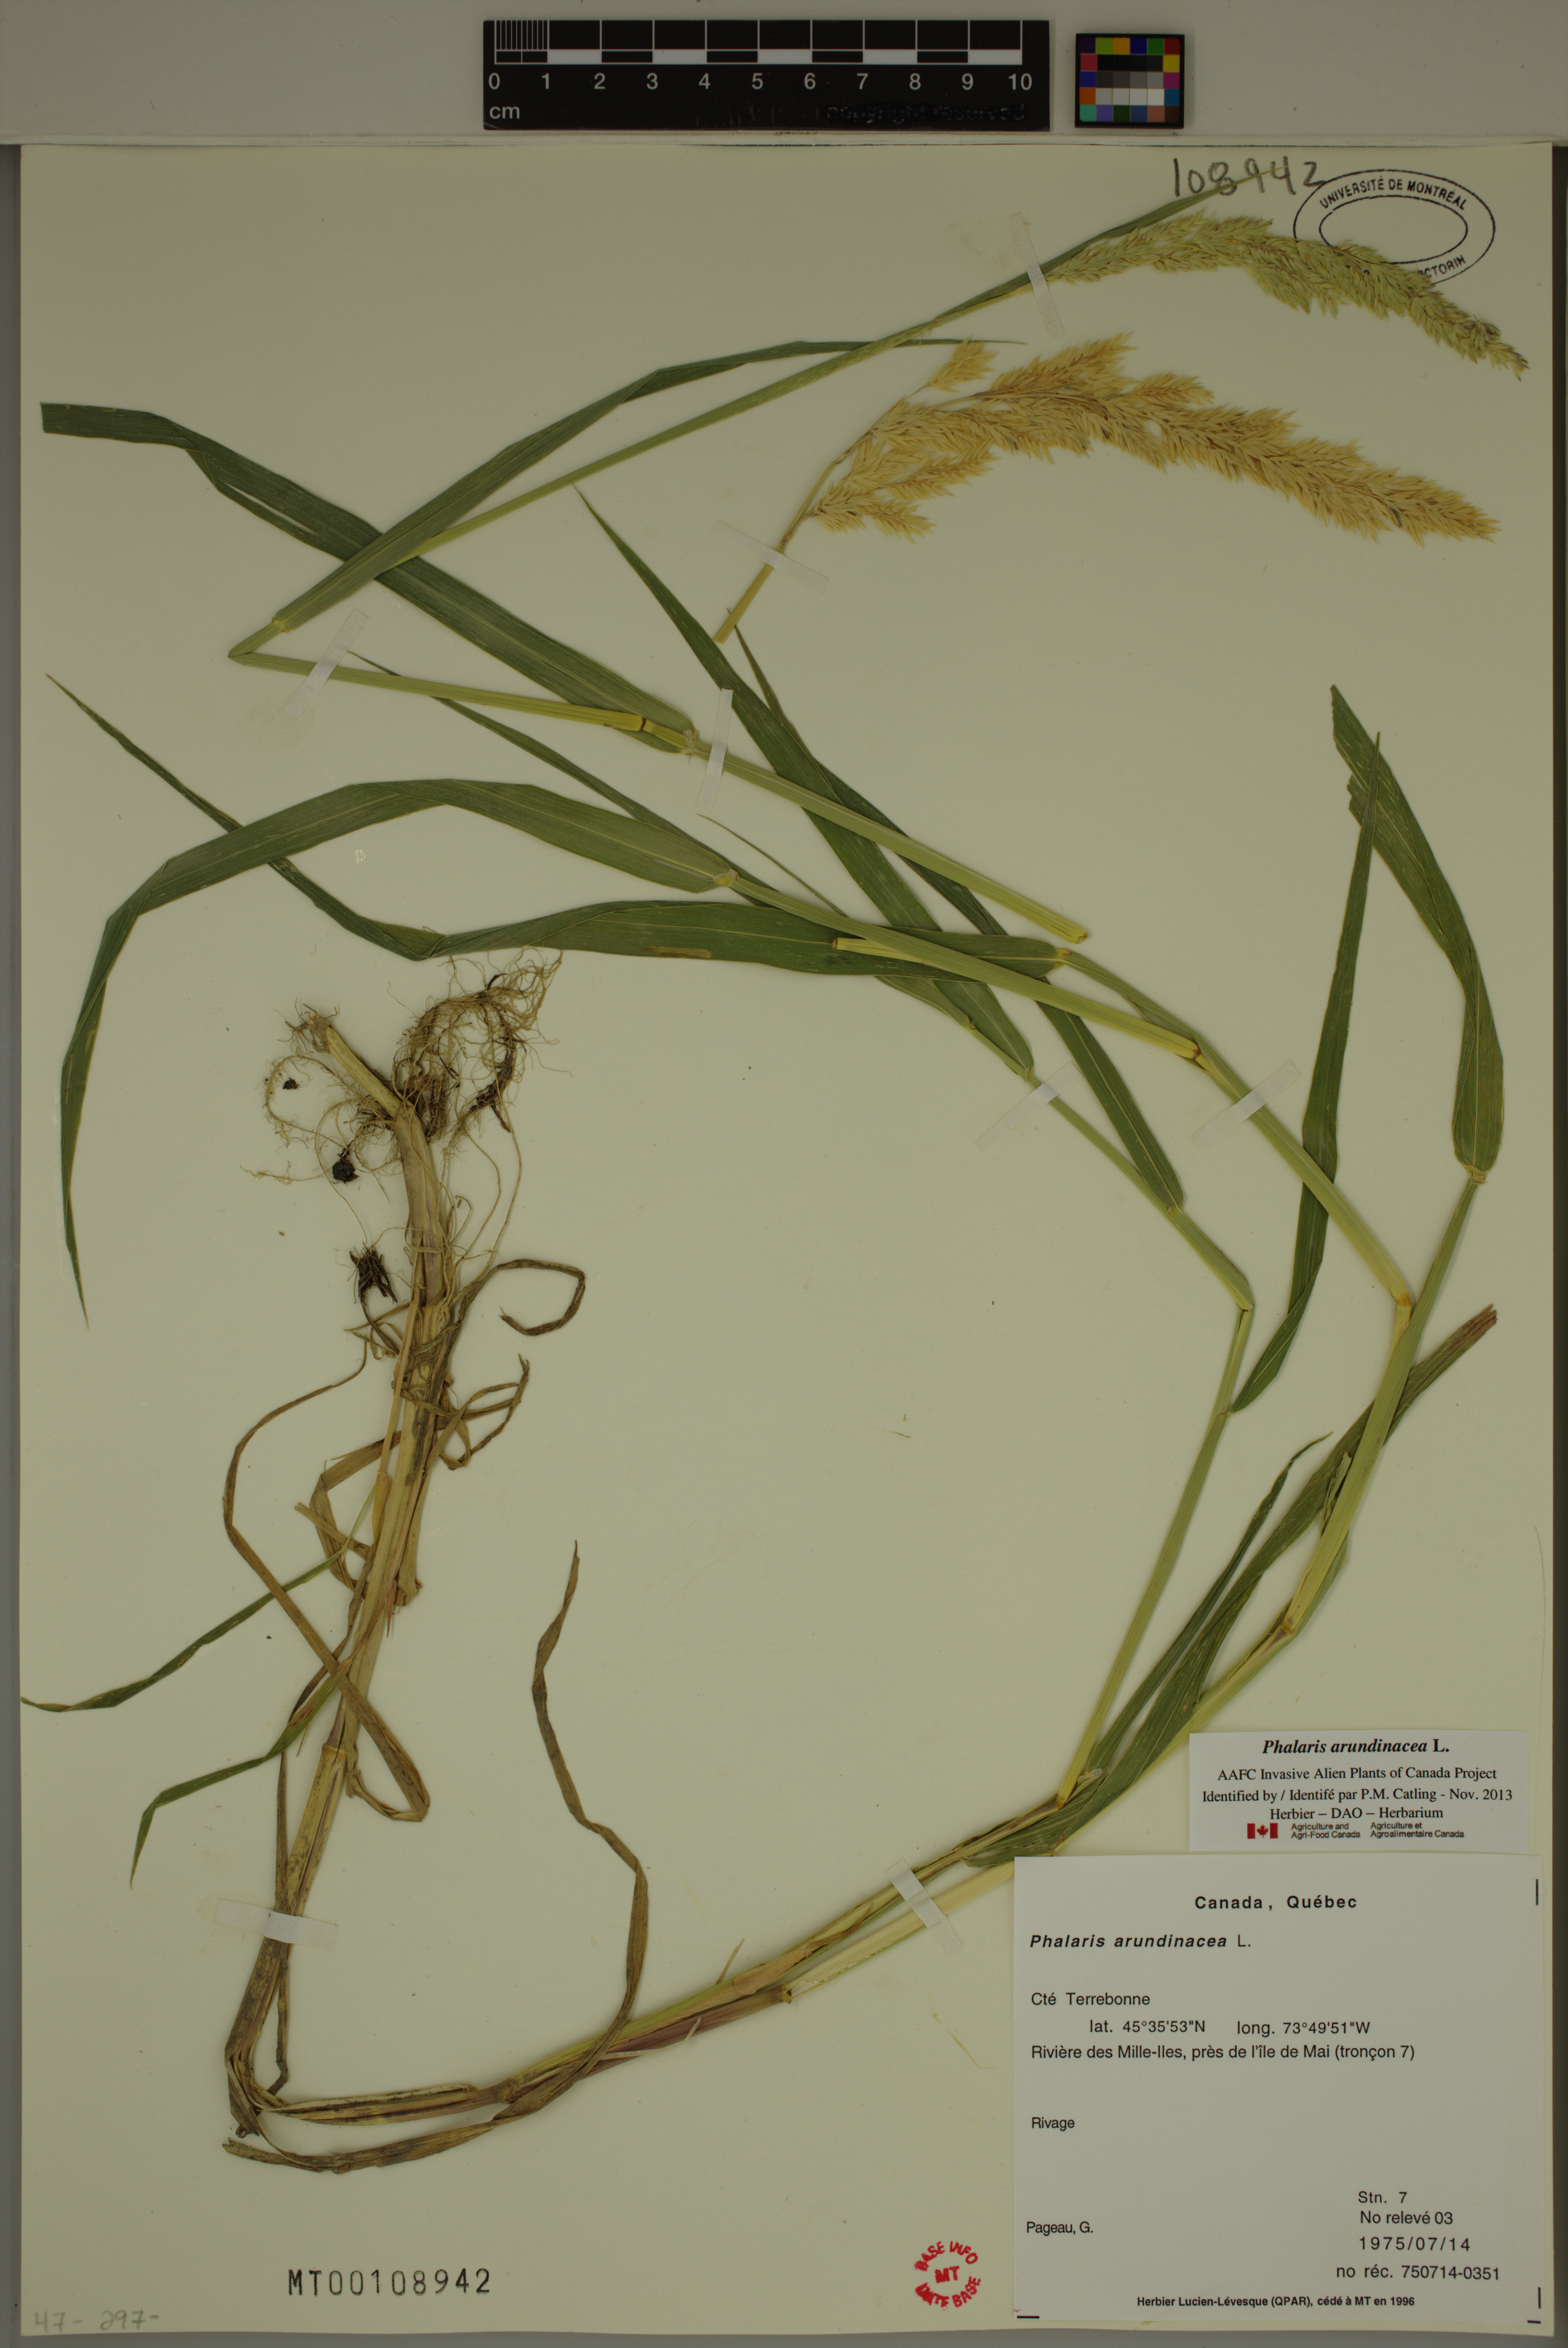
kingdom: Plantae
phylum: Tracheophyta
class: Liliopsida
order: Poales
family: Poaceae
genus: Phalaris
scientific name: Phalaris arundinacea
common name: Reed canary-grass
